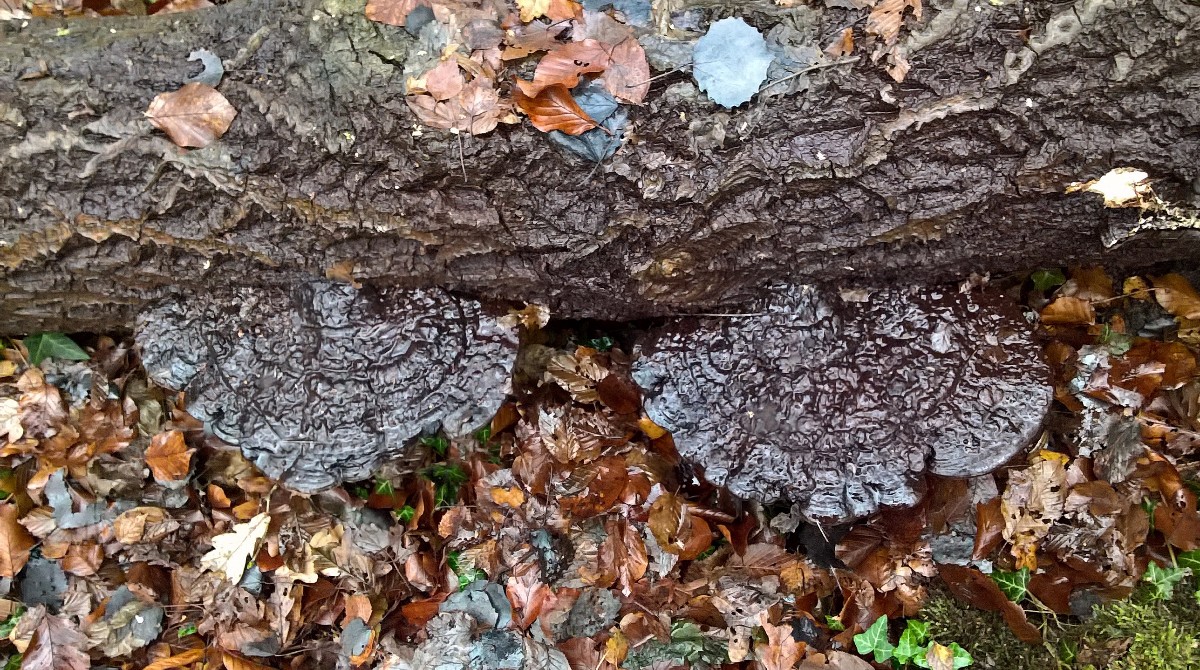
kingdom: Fungi
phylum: Basidiomycota
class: Agaricomycetes
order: Polyporales
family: Polyporaceae
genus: Ganoderma
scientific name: Ganoderma applanatum
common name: flad lakporesvamp
